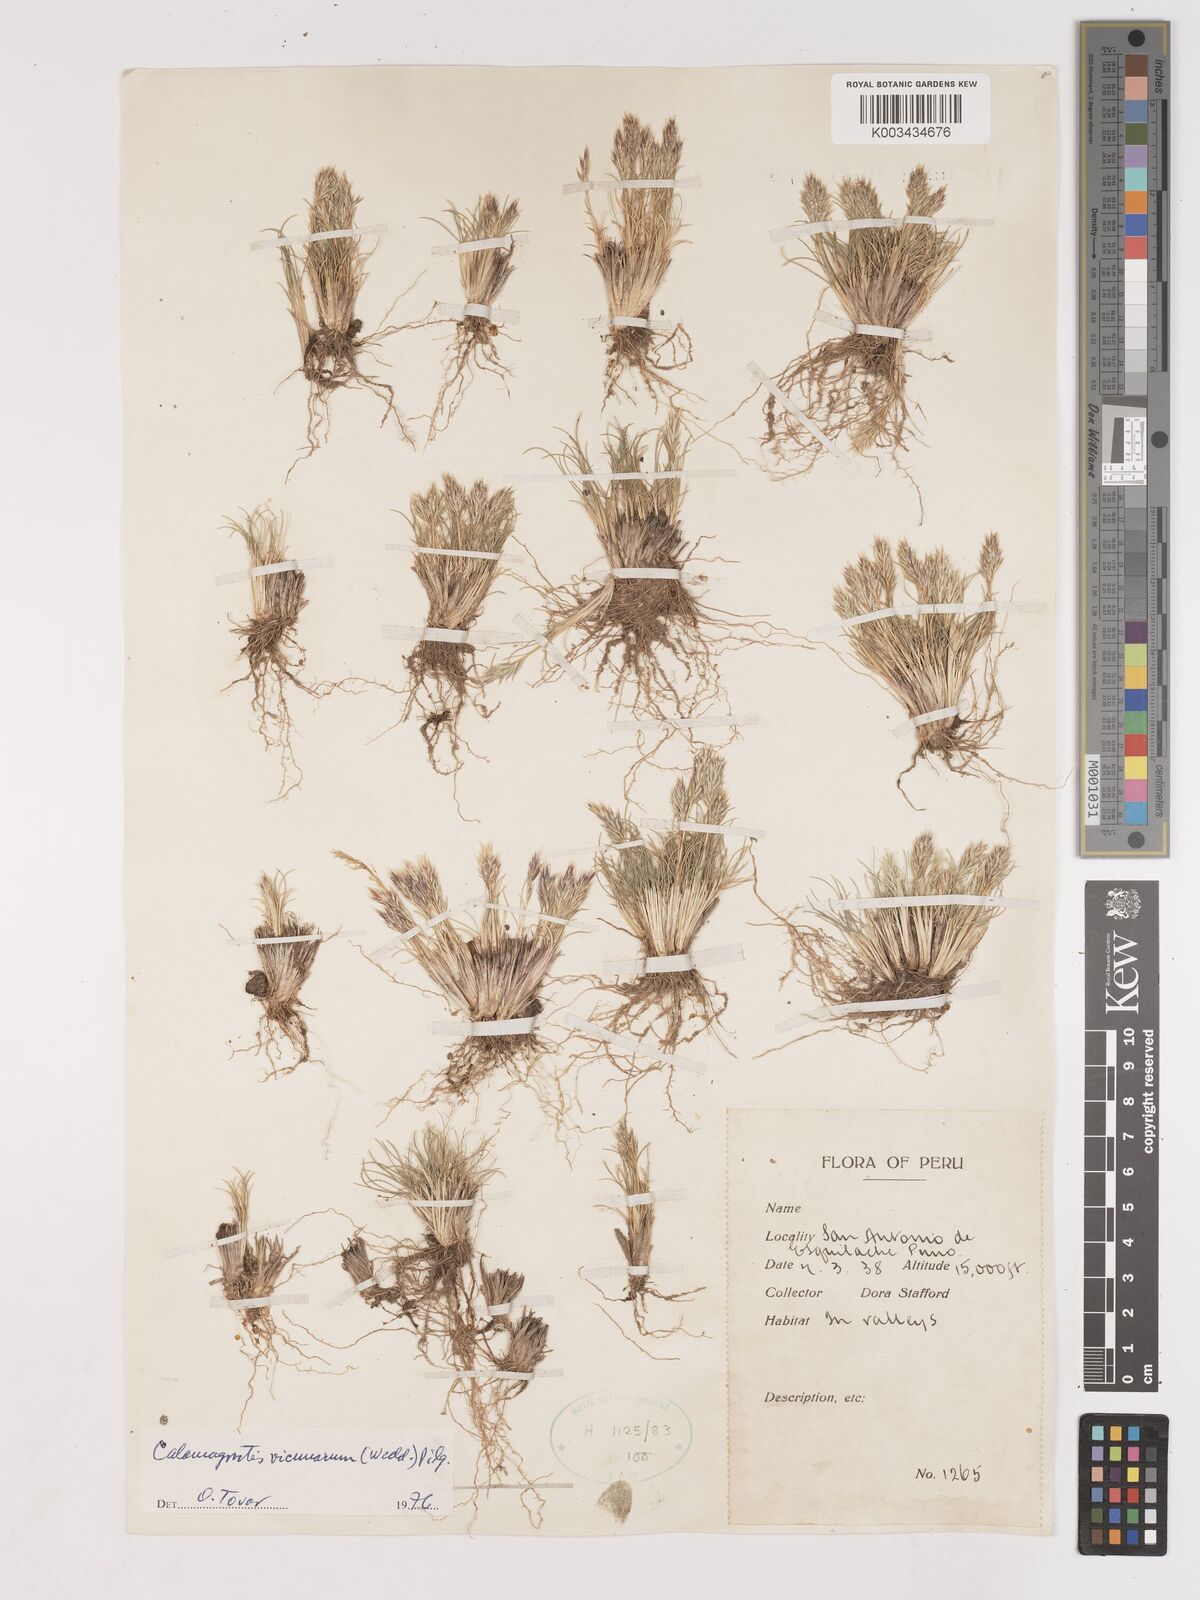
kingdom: Plantae
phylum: Tracheophyta
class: Liliopsida
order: Poales
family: Poaceae
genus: Cinnagrostis
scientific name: Cinnagrostis vicunarum
